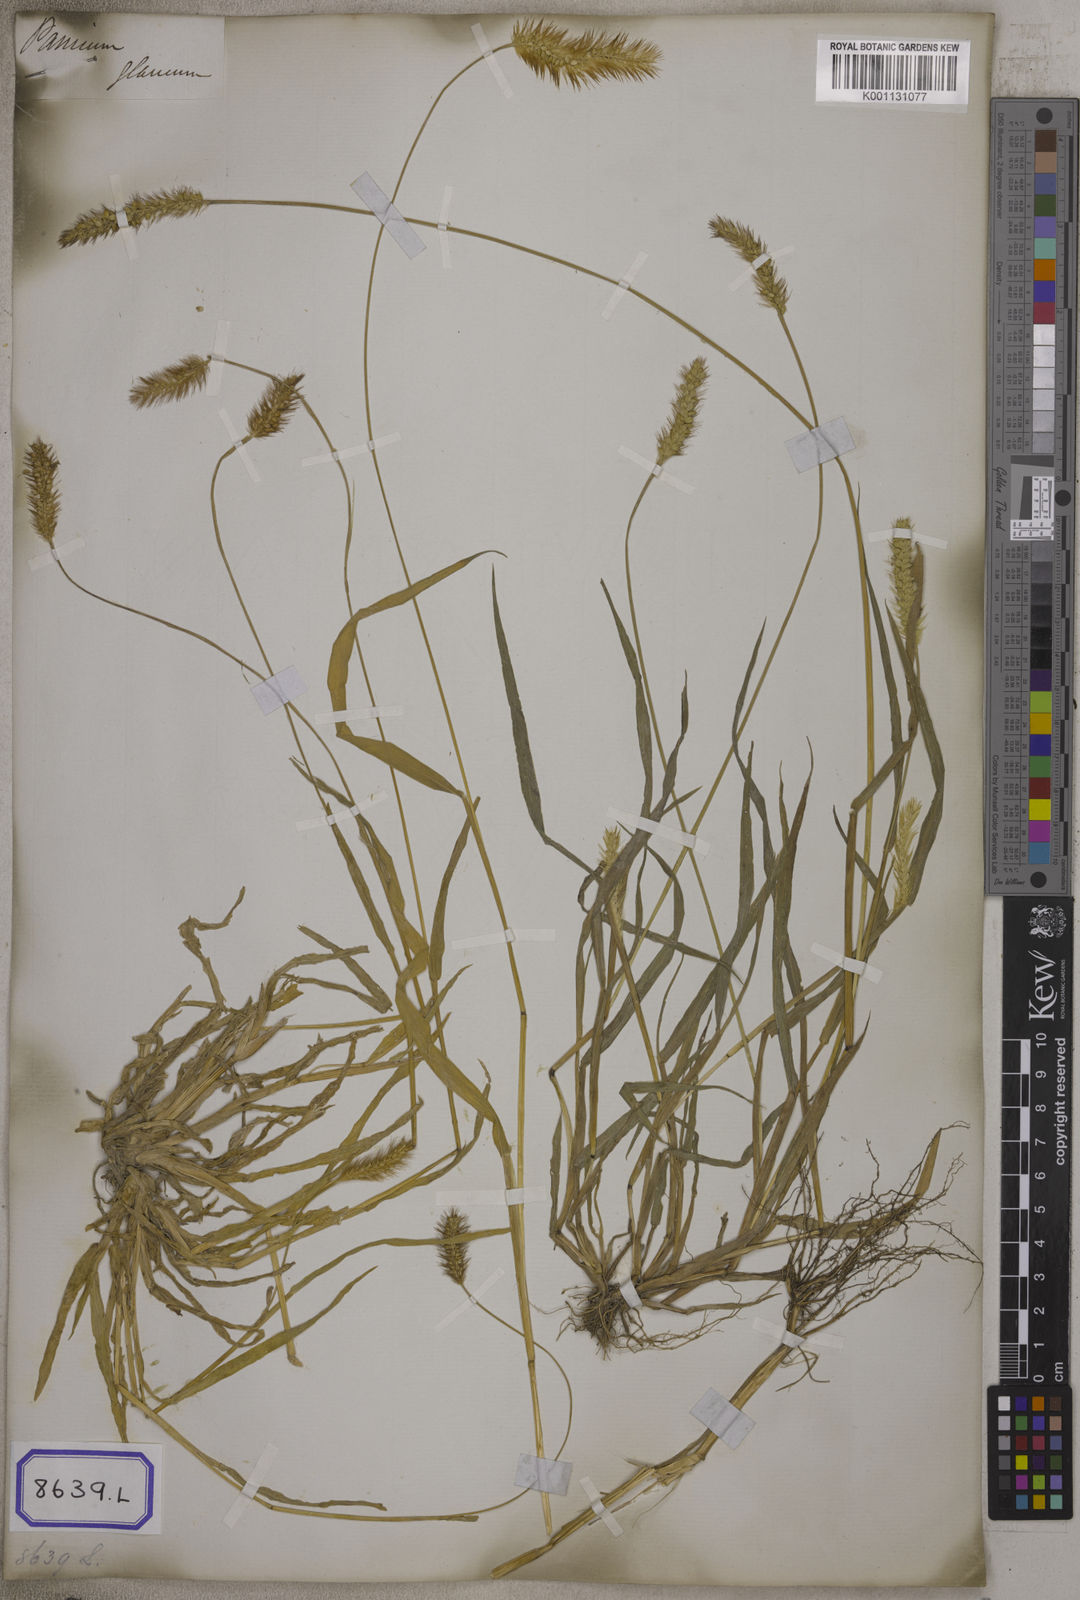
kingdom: Plantae
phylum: Tracheophyta
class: Liliopsida
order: Poales
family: Poaceae
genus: Cenchrus
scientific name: Cenchrus americanus
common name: Pearl millet
